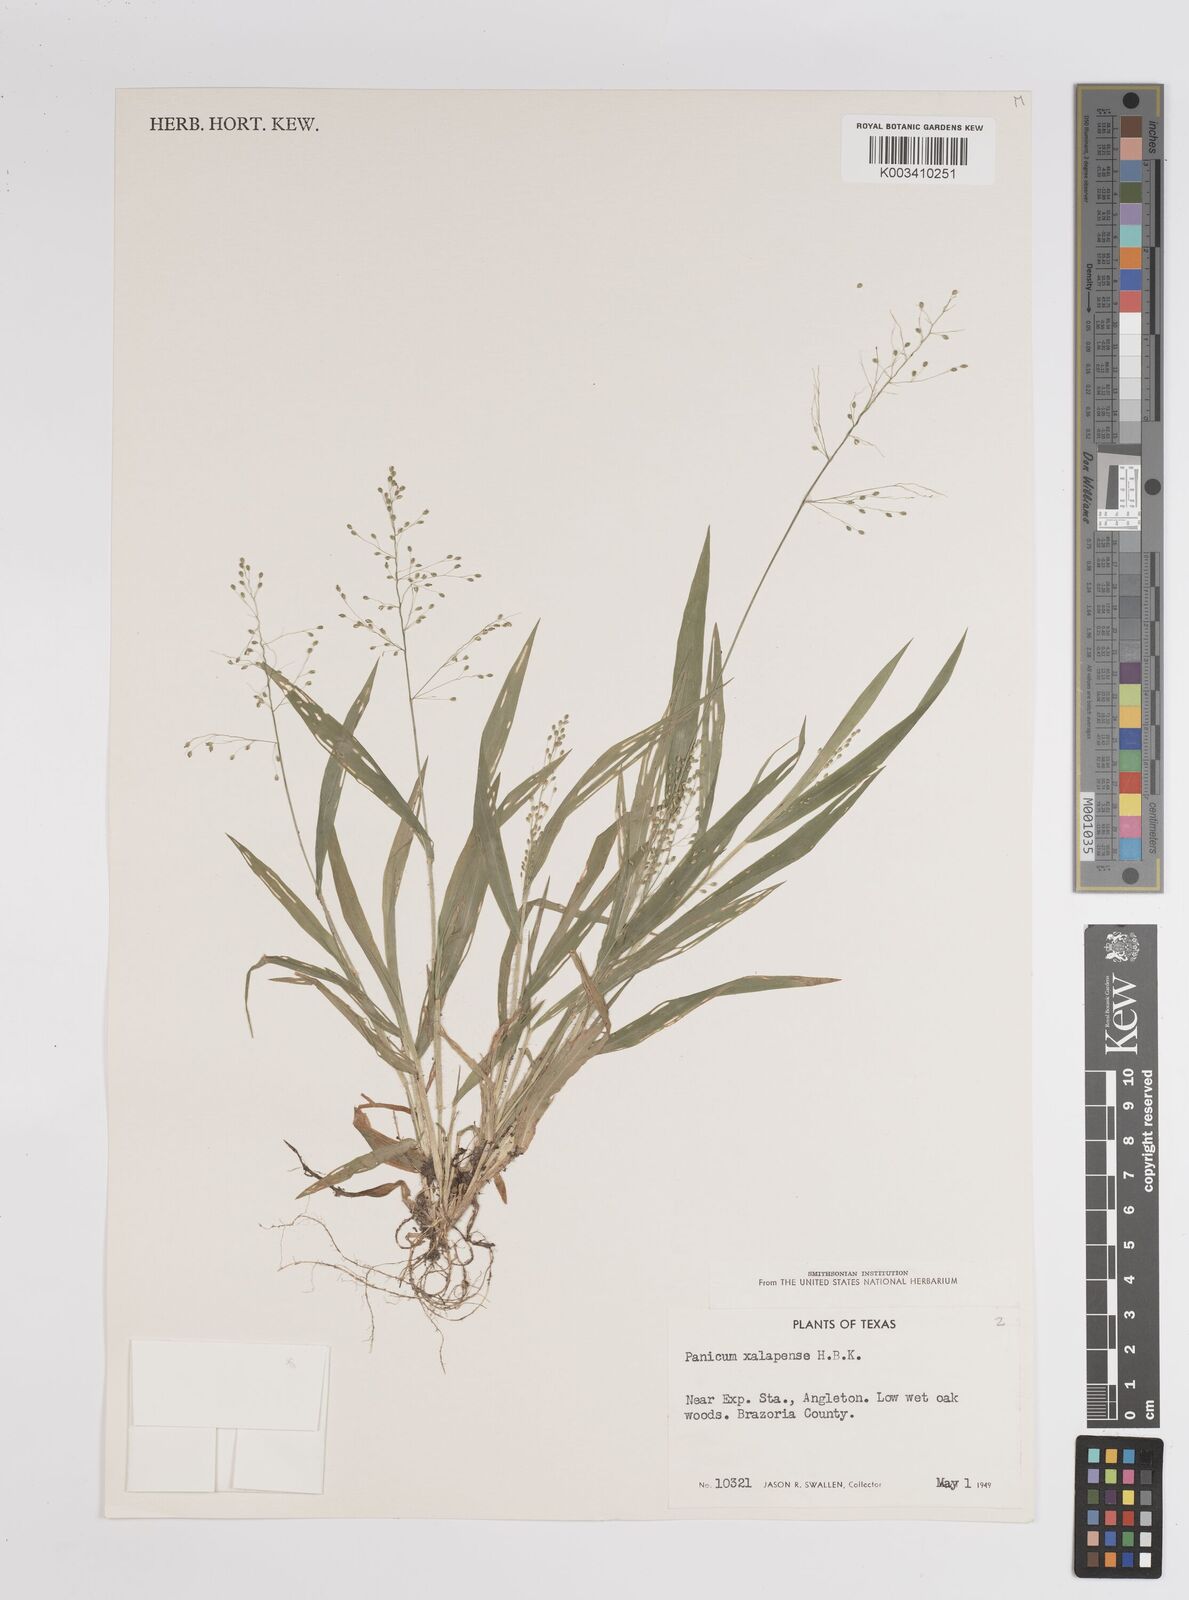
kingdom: Plantae
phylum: Tracheophyta
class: Liliopsida
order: Poales
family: Poaceae
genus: Dichanthelium
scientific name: Dichanthelium laxiflorum
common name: Soft-tuft panic grass
